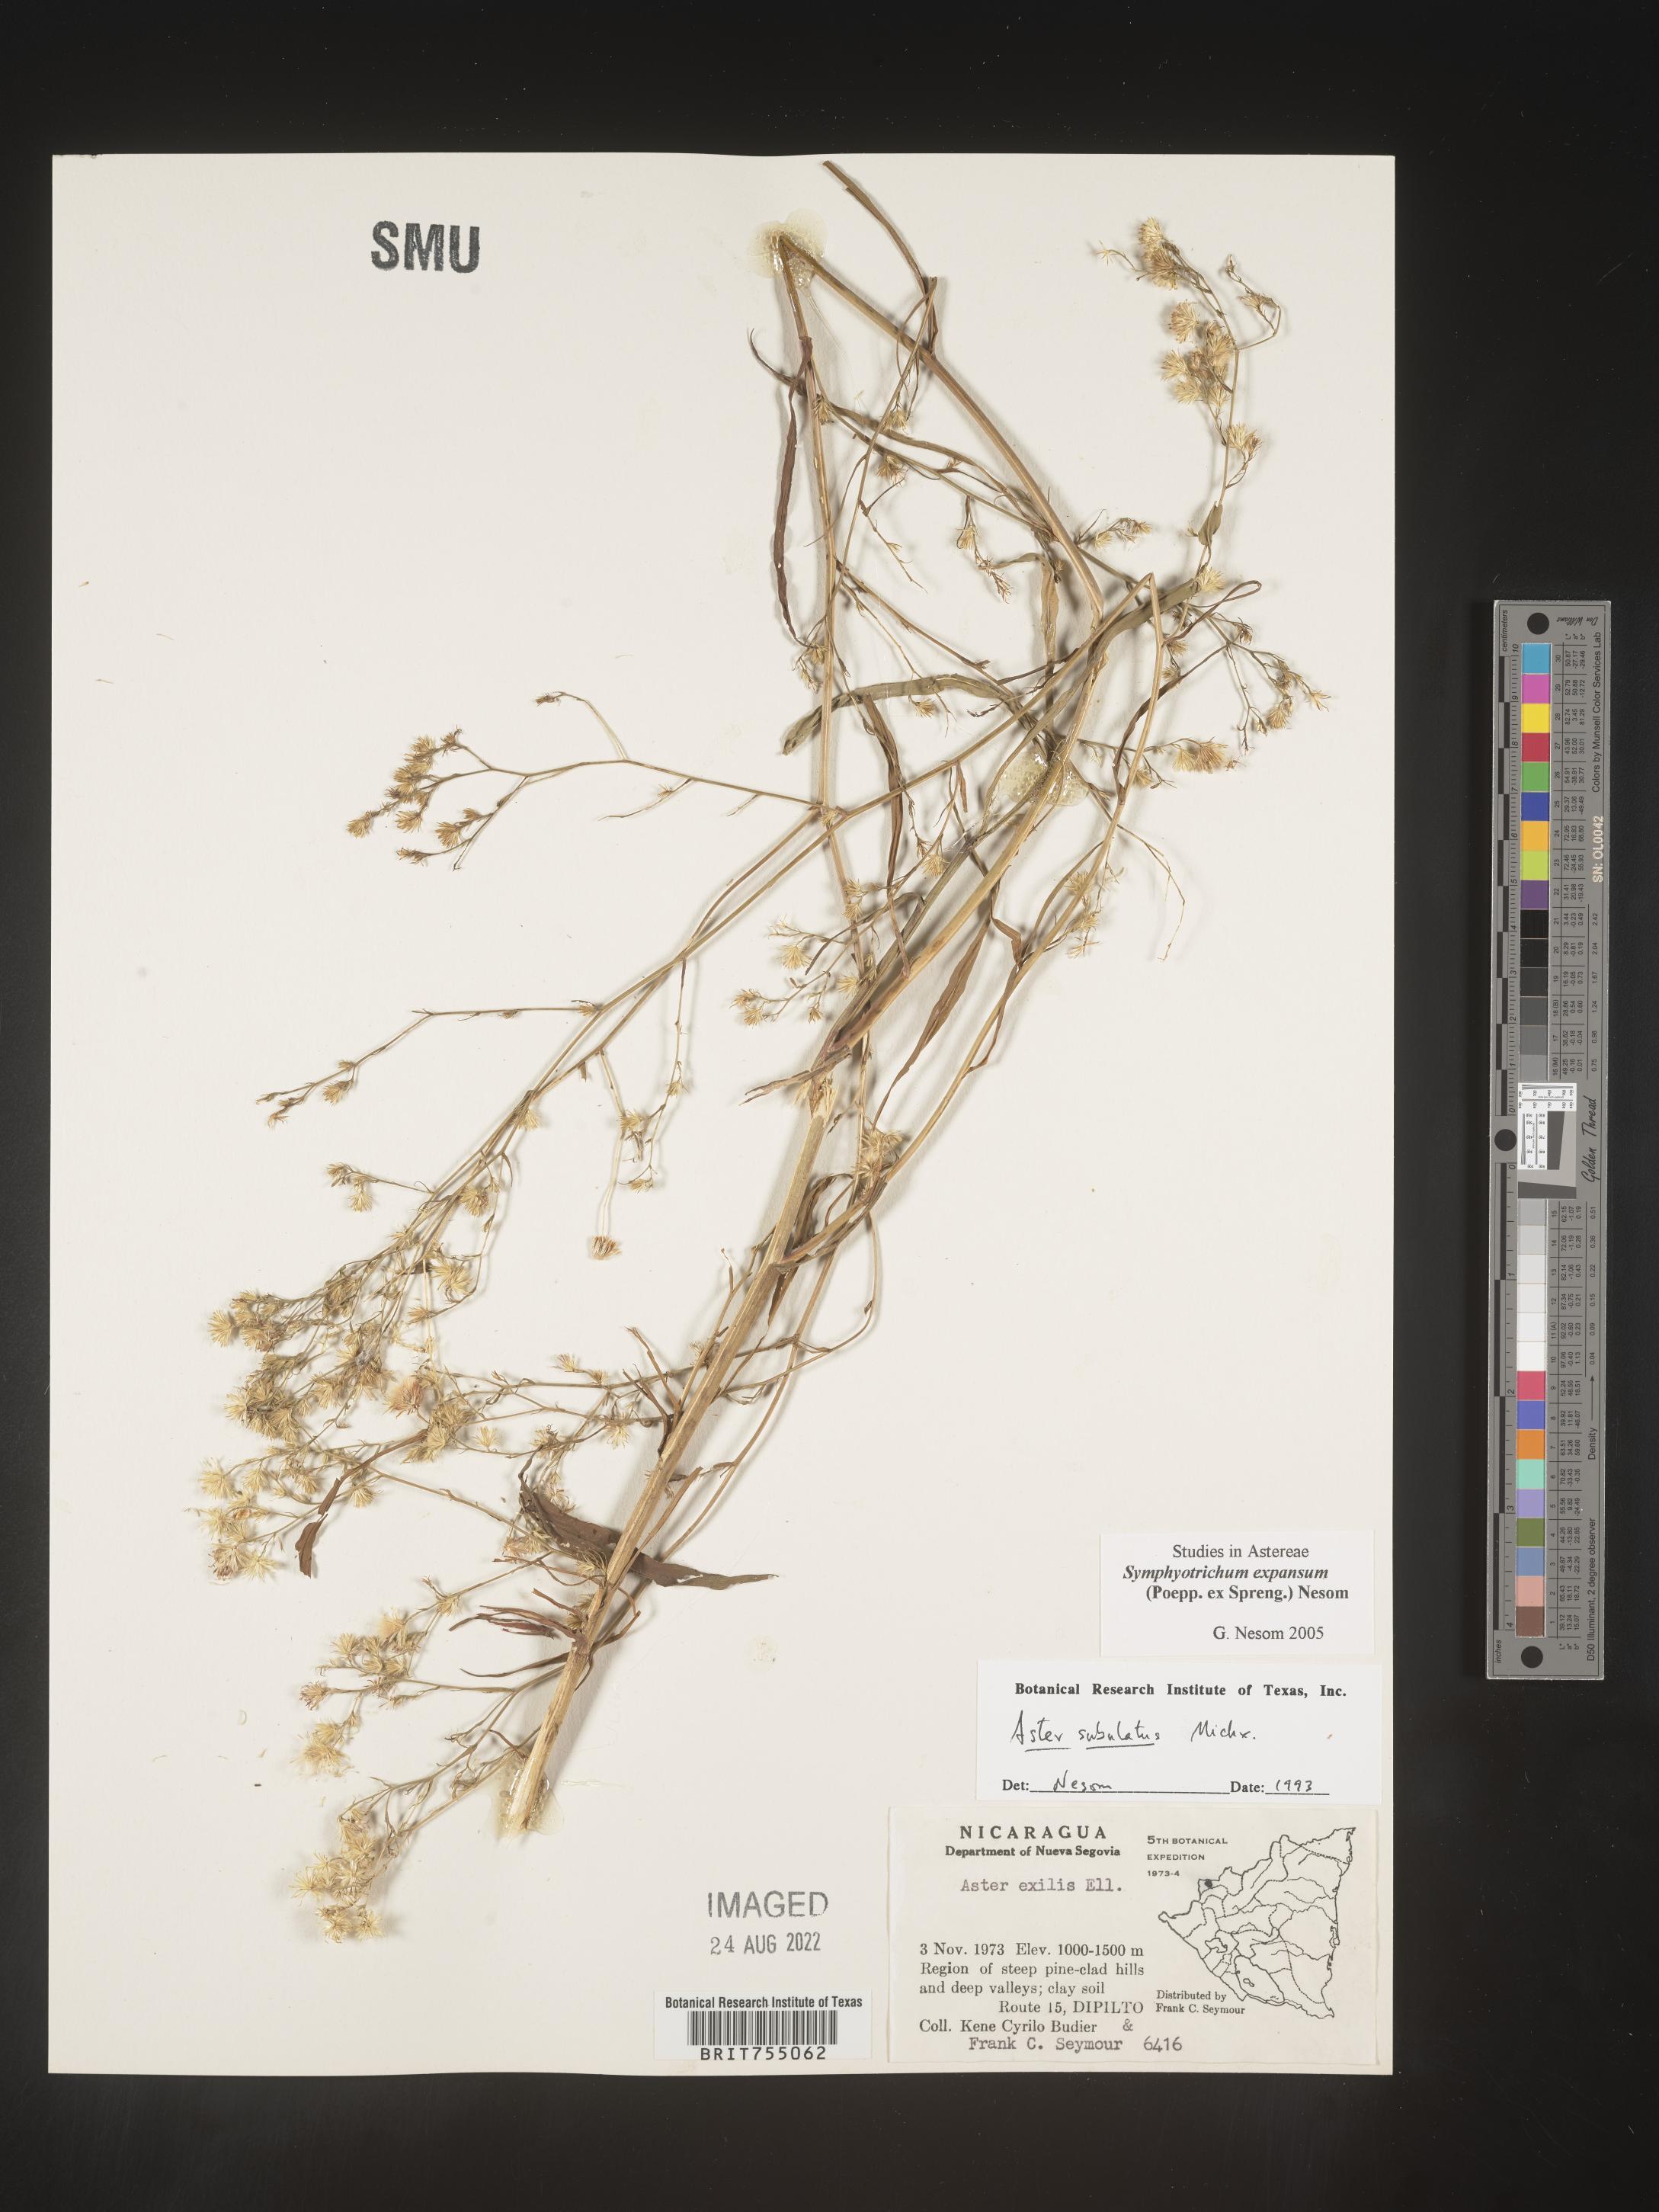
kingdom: Plantae
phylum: Tracheophyta
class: Magnoliopsida
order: Asterales
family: Asteraceae
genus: Symphyotrichum
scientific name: Symphyotrichum expansum
